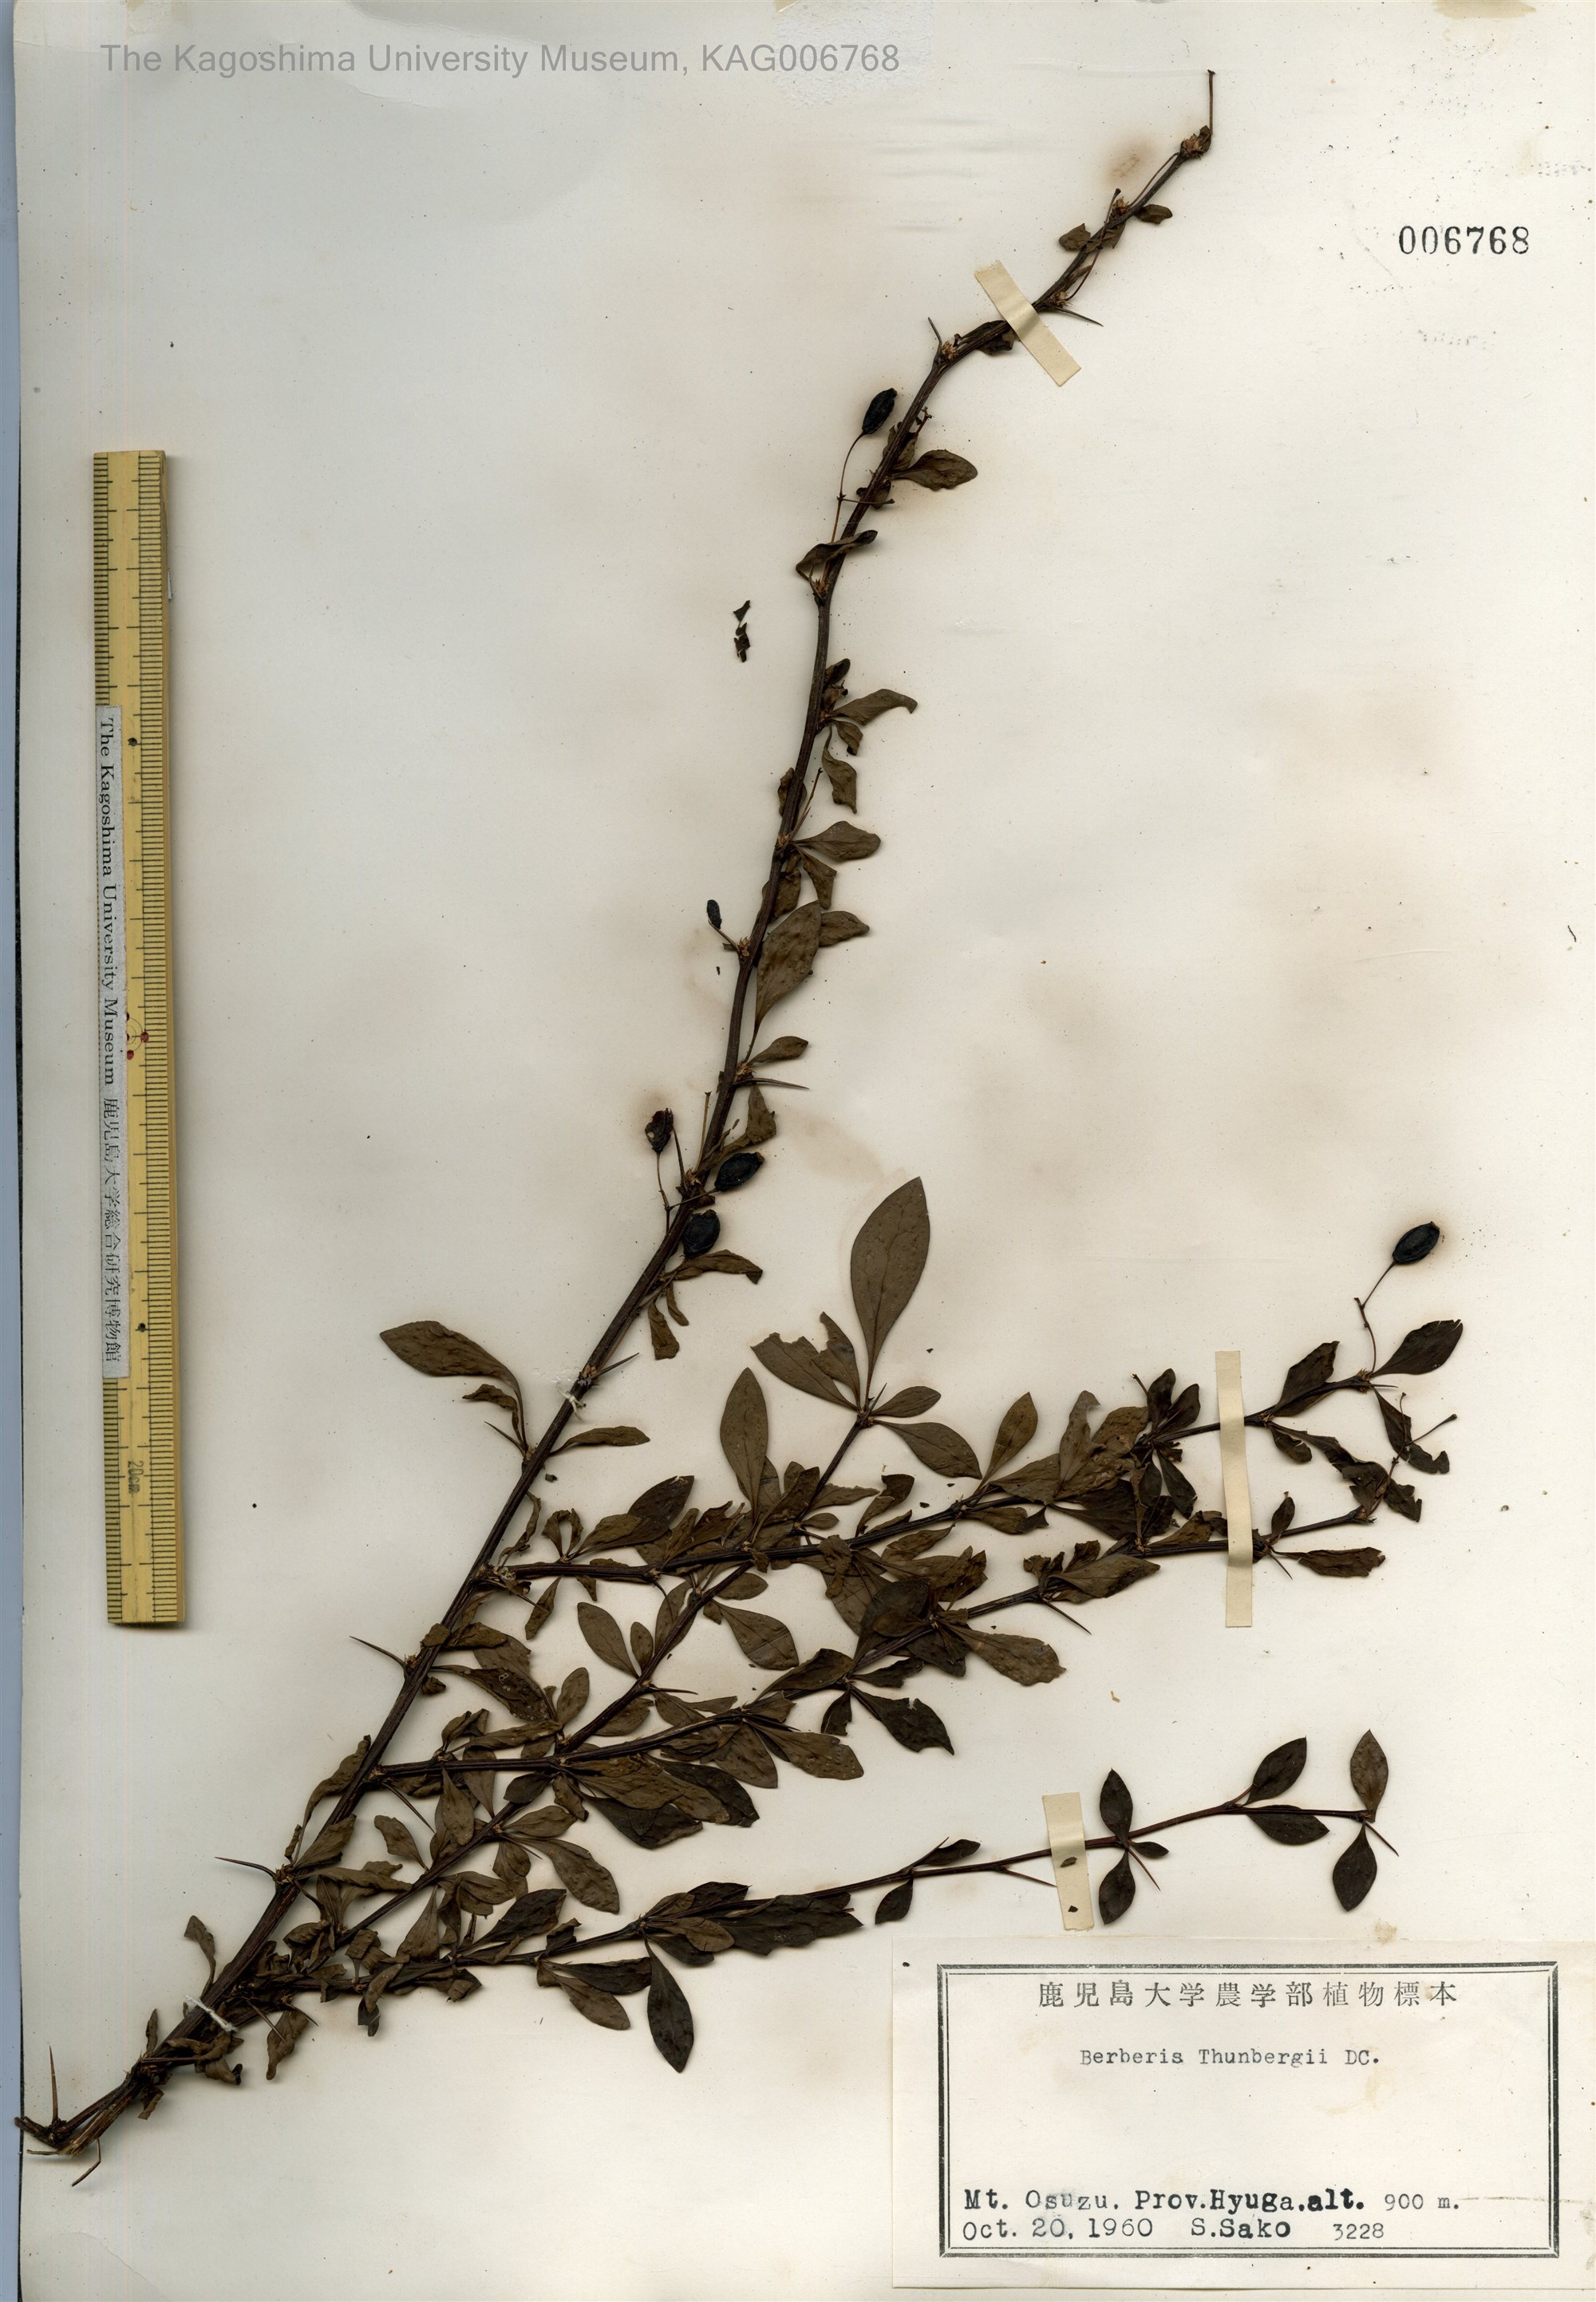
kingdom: Plantae
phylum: Tracheophyta
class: Magnoliopsida
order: Ranunculales
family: Berberidaceae
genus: Berberis
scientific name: Berberis thunbergii
